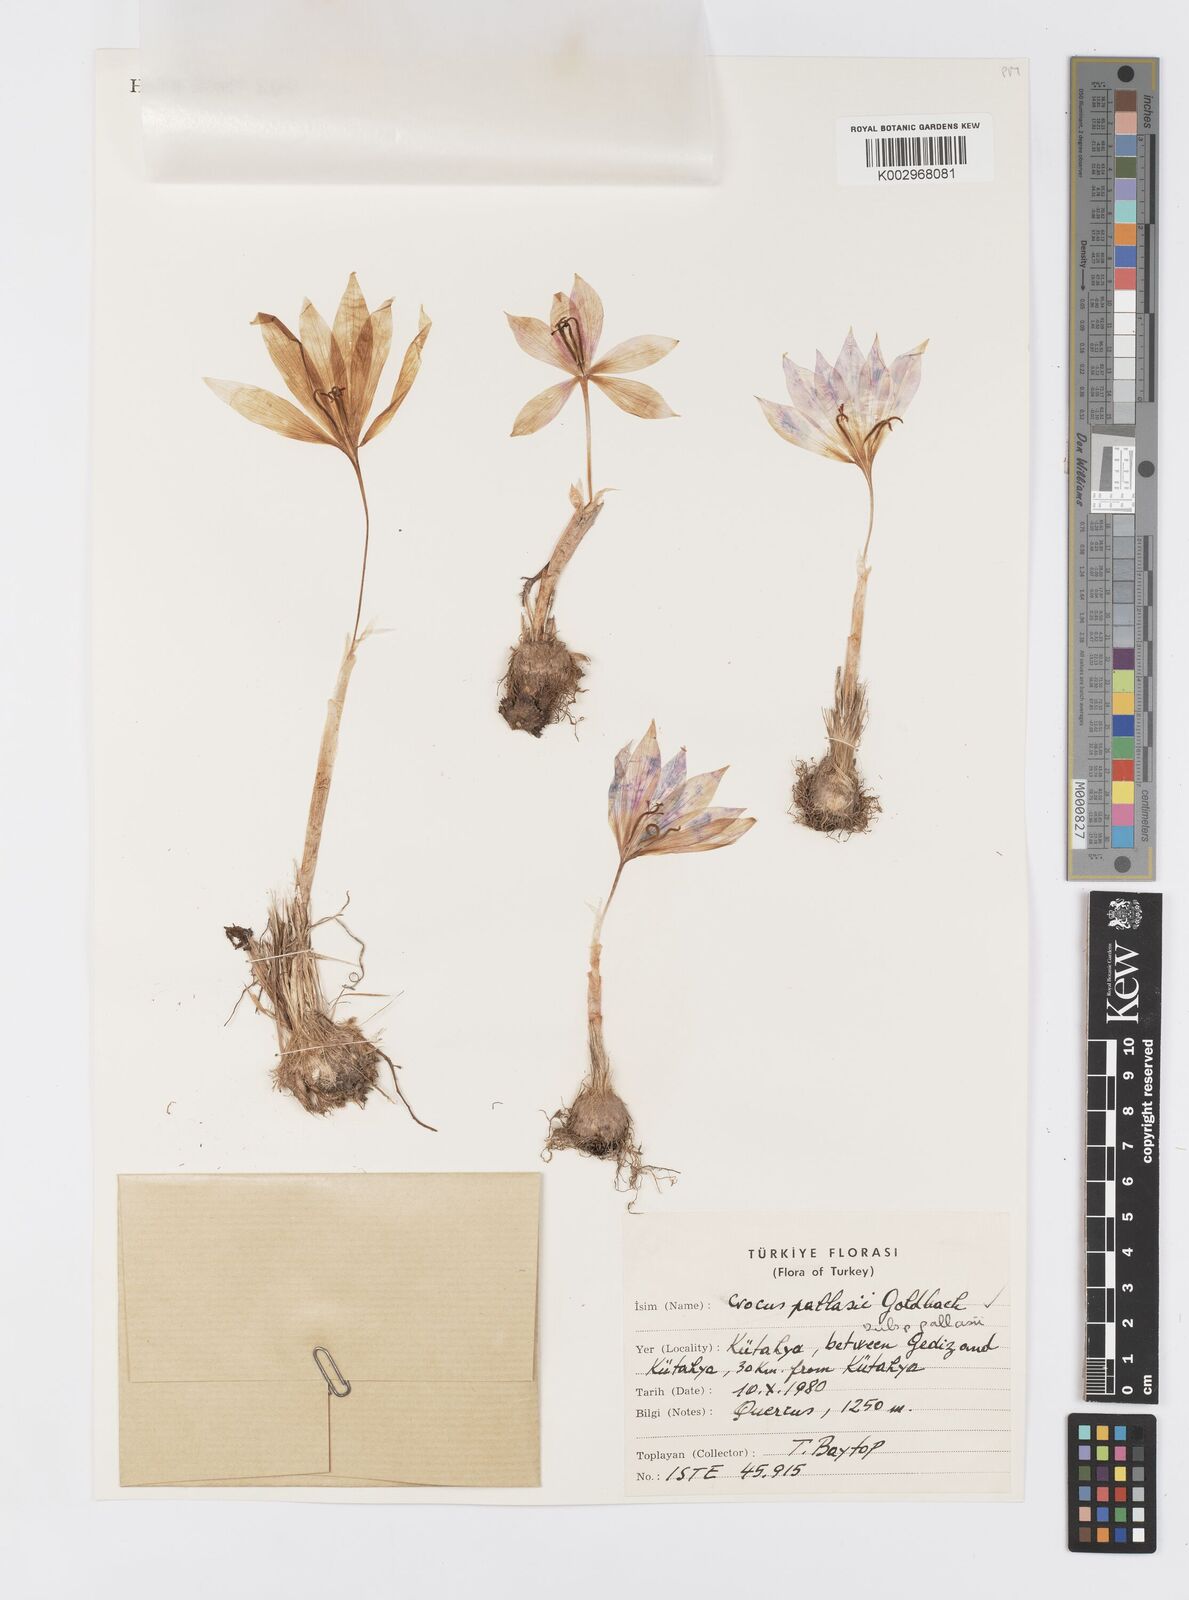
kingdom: Plantae
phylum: Tracheophyta
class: Liliopsida
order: Asparagales
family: Iridaceae
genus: Crocus
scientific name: Crocus pallasii
